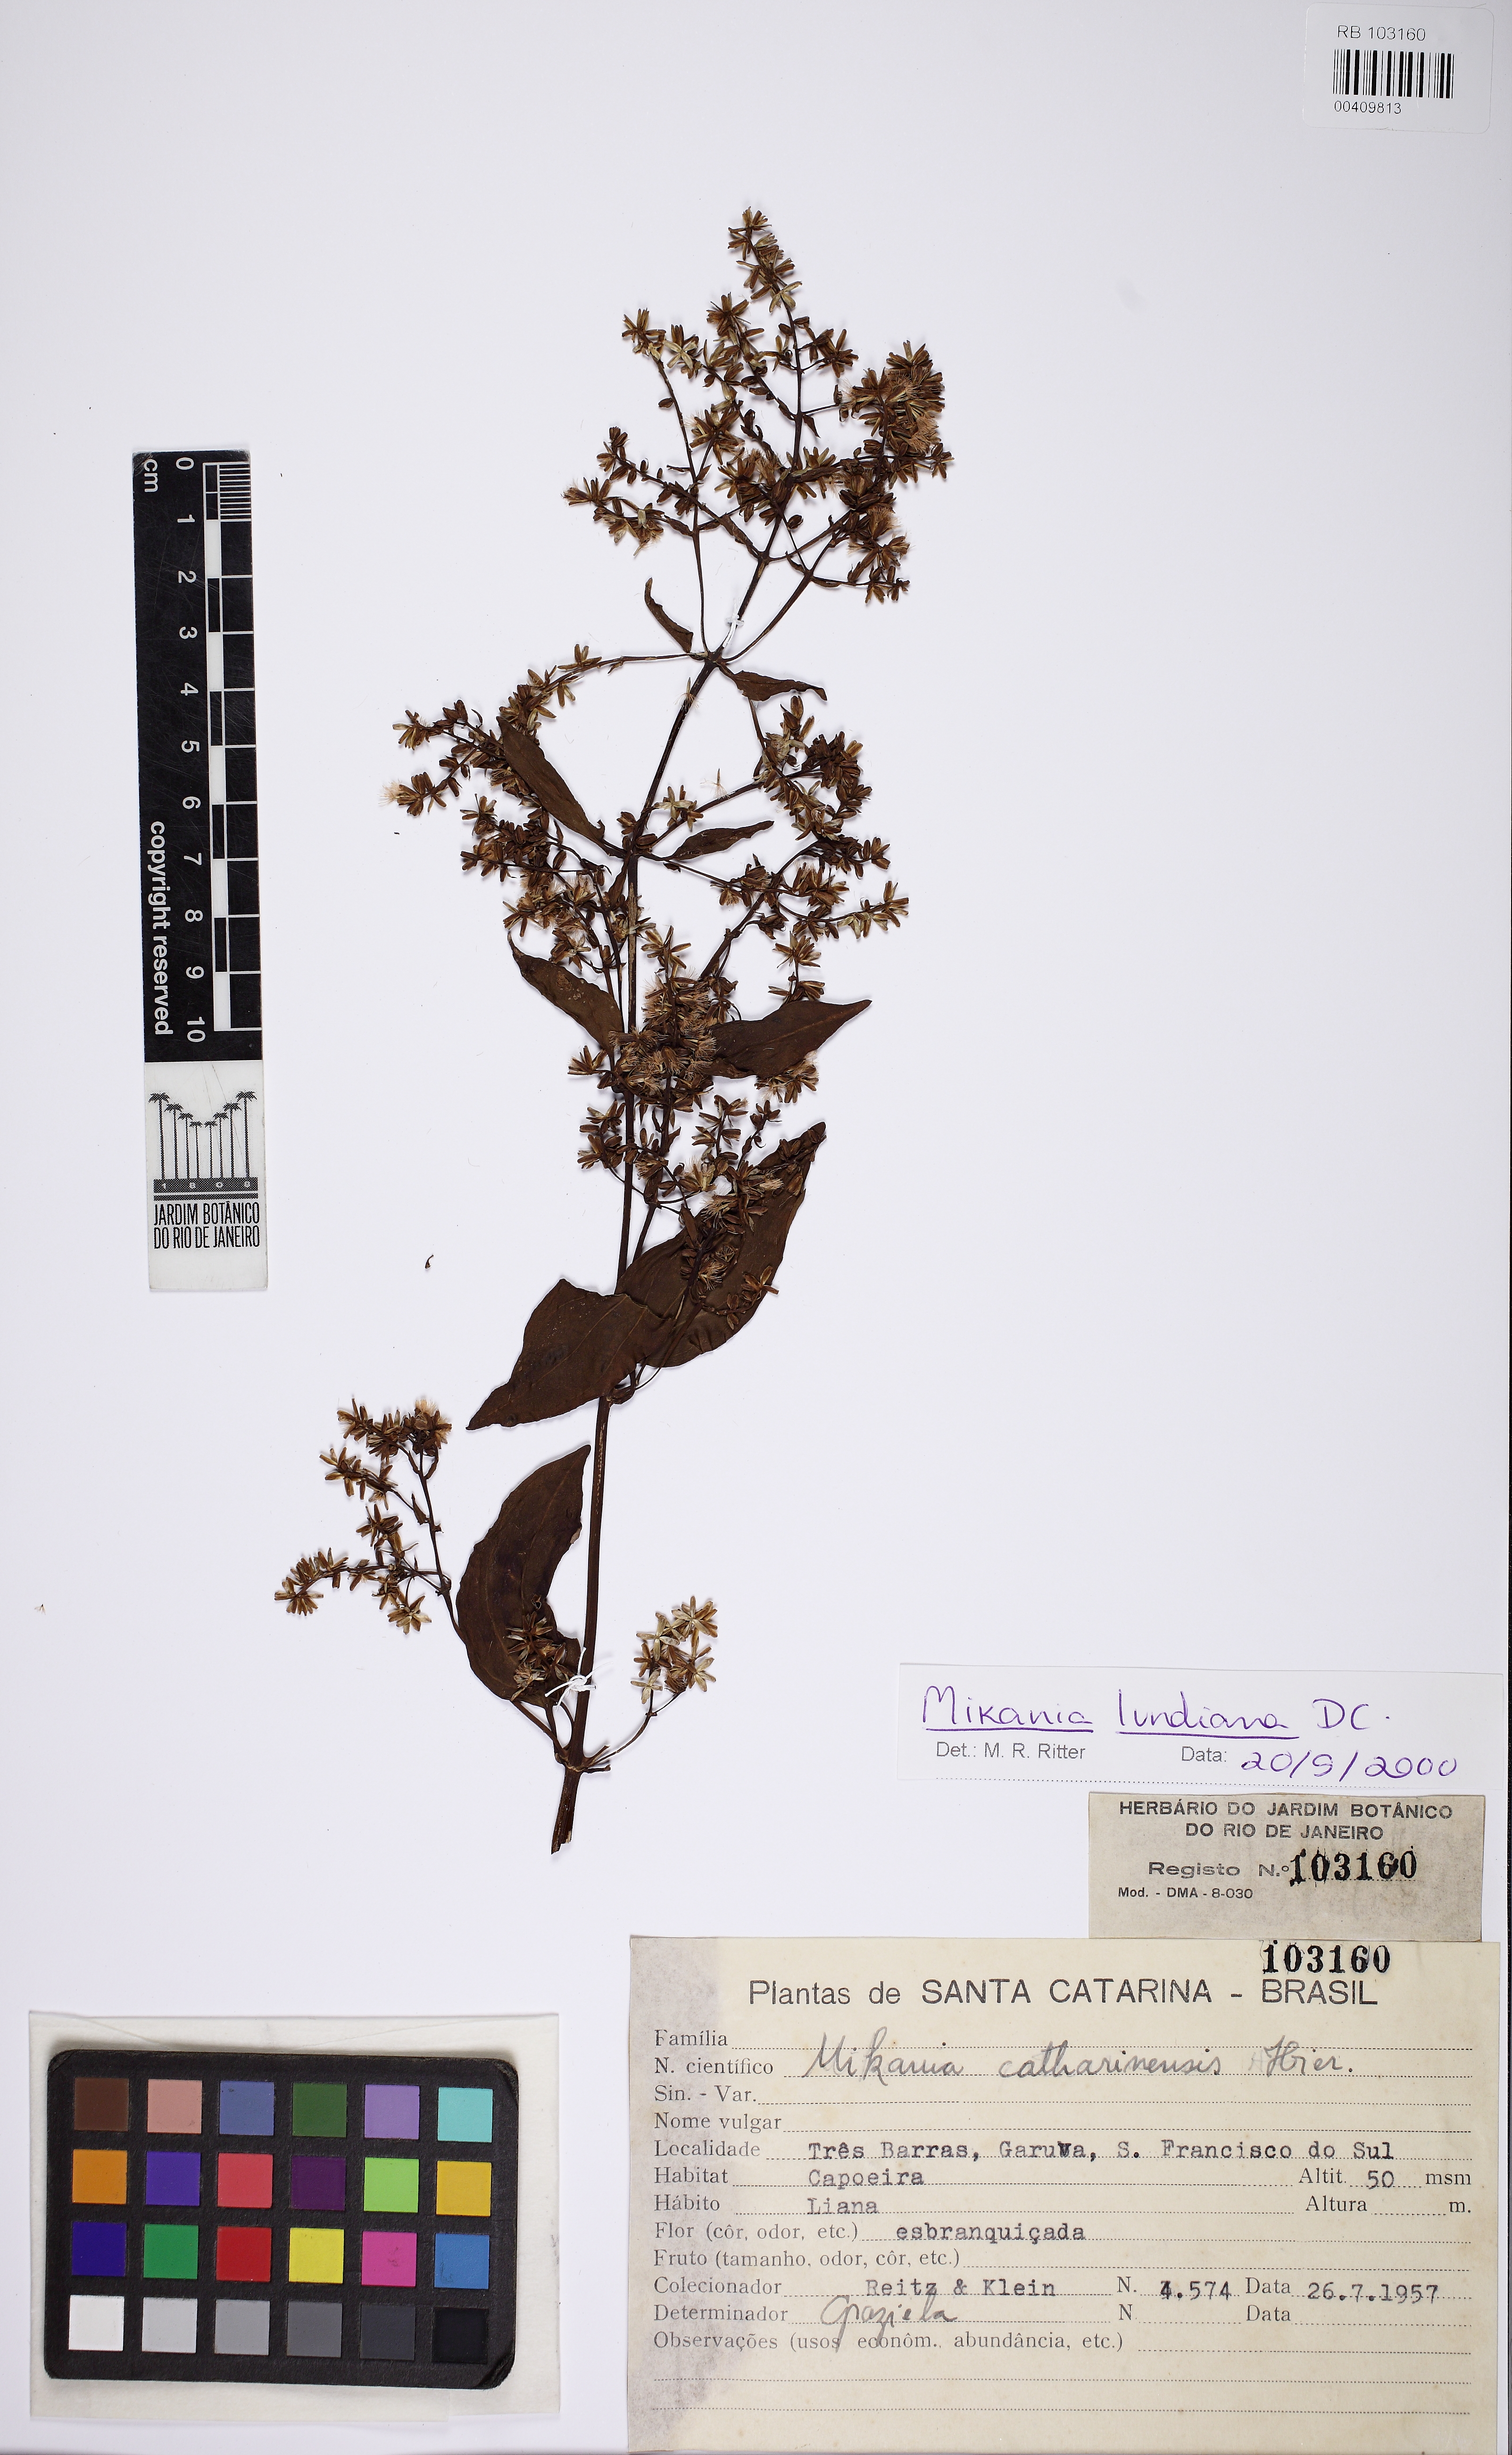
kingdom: Plantae
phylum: Tracheophyta
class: Magnoliopsida
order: Asterales
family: Asteraceae
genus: Mikania
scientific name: Mikania lundiana
